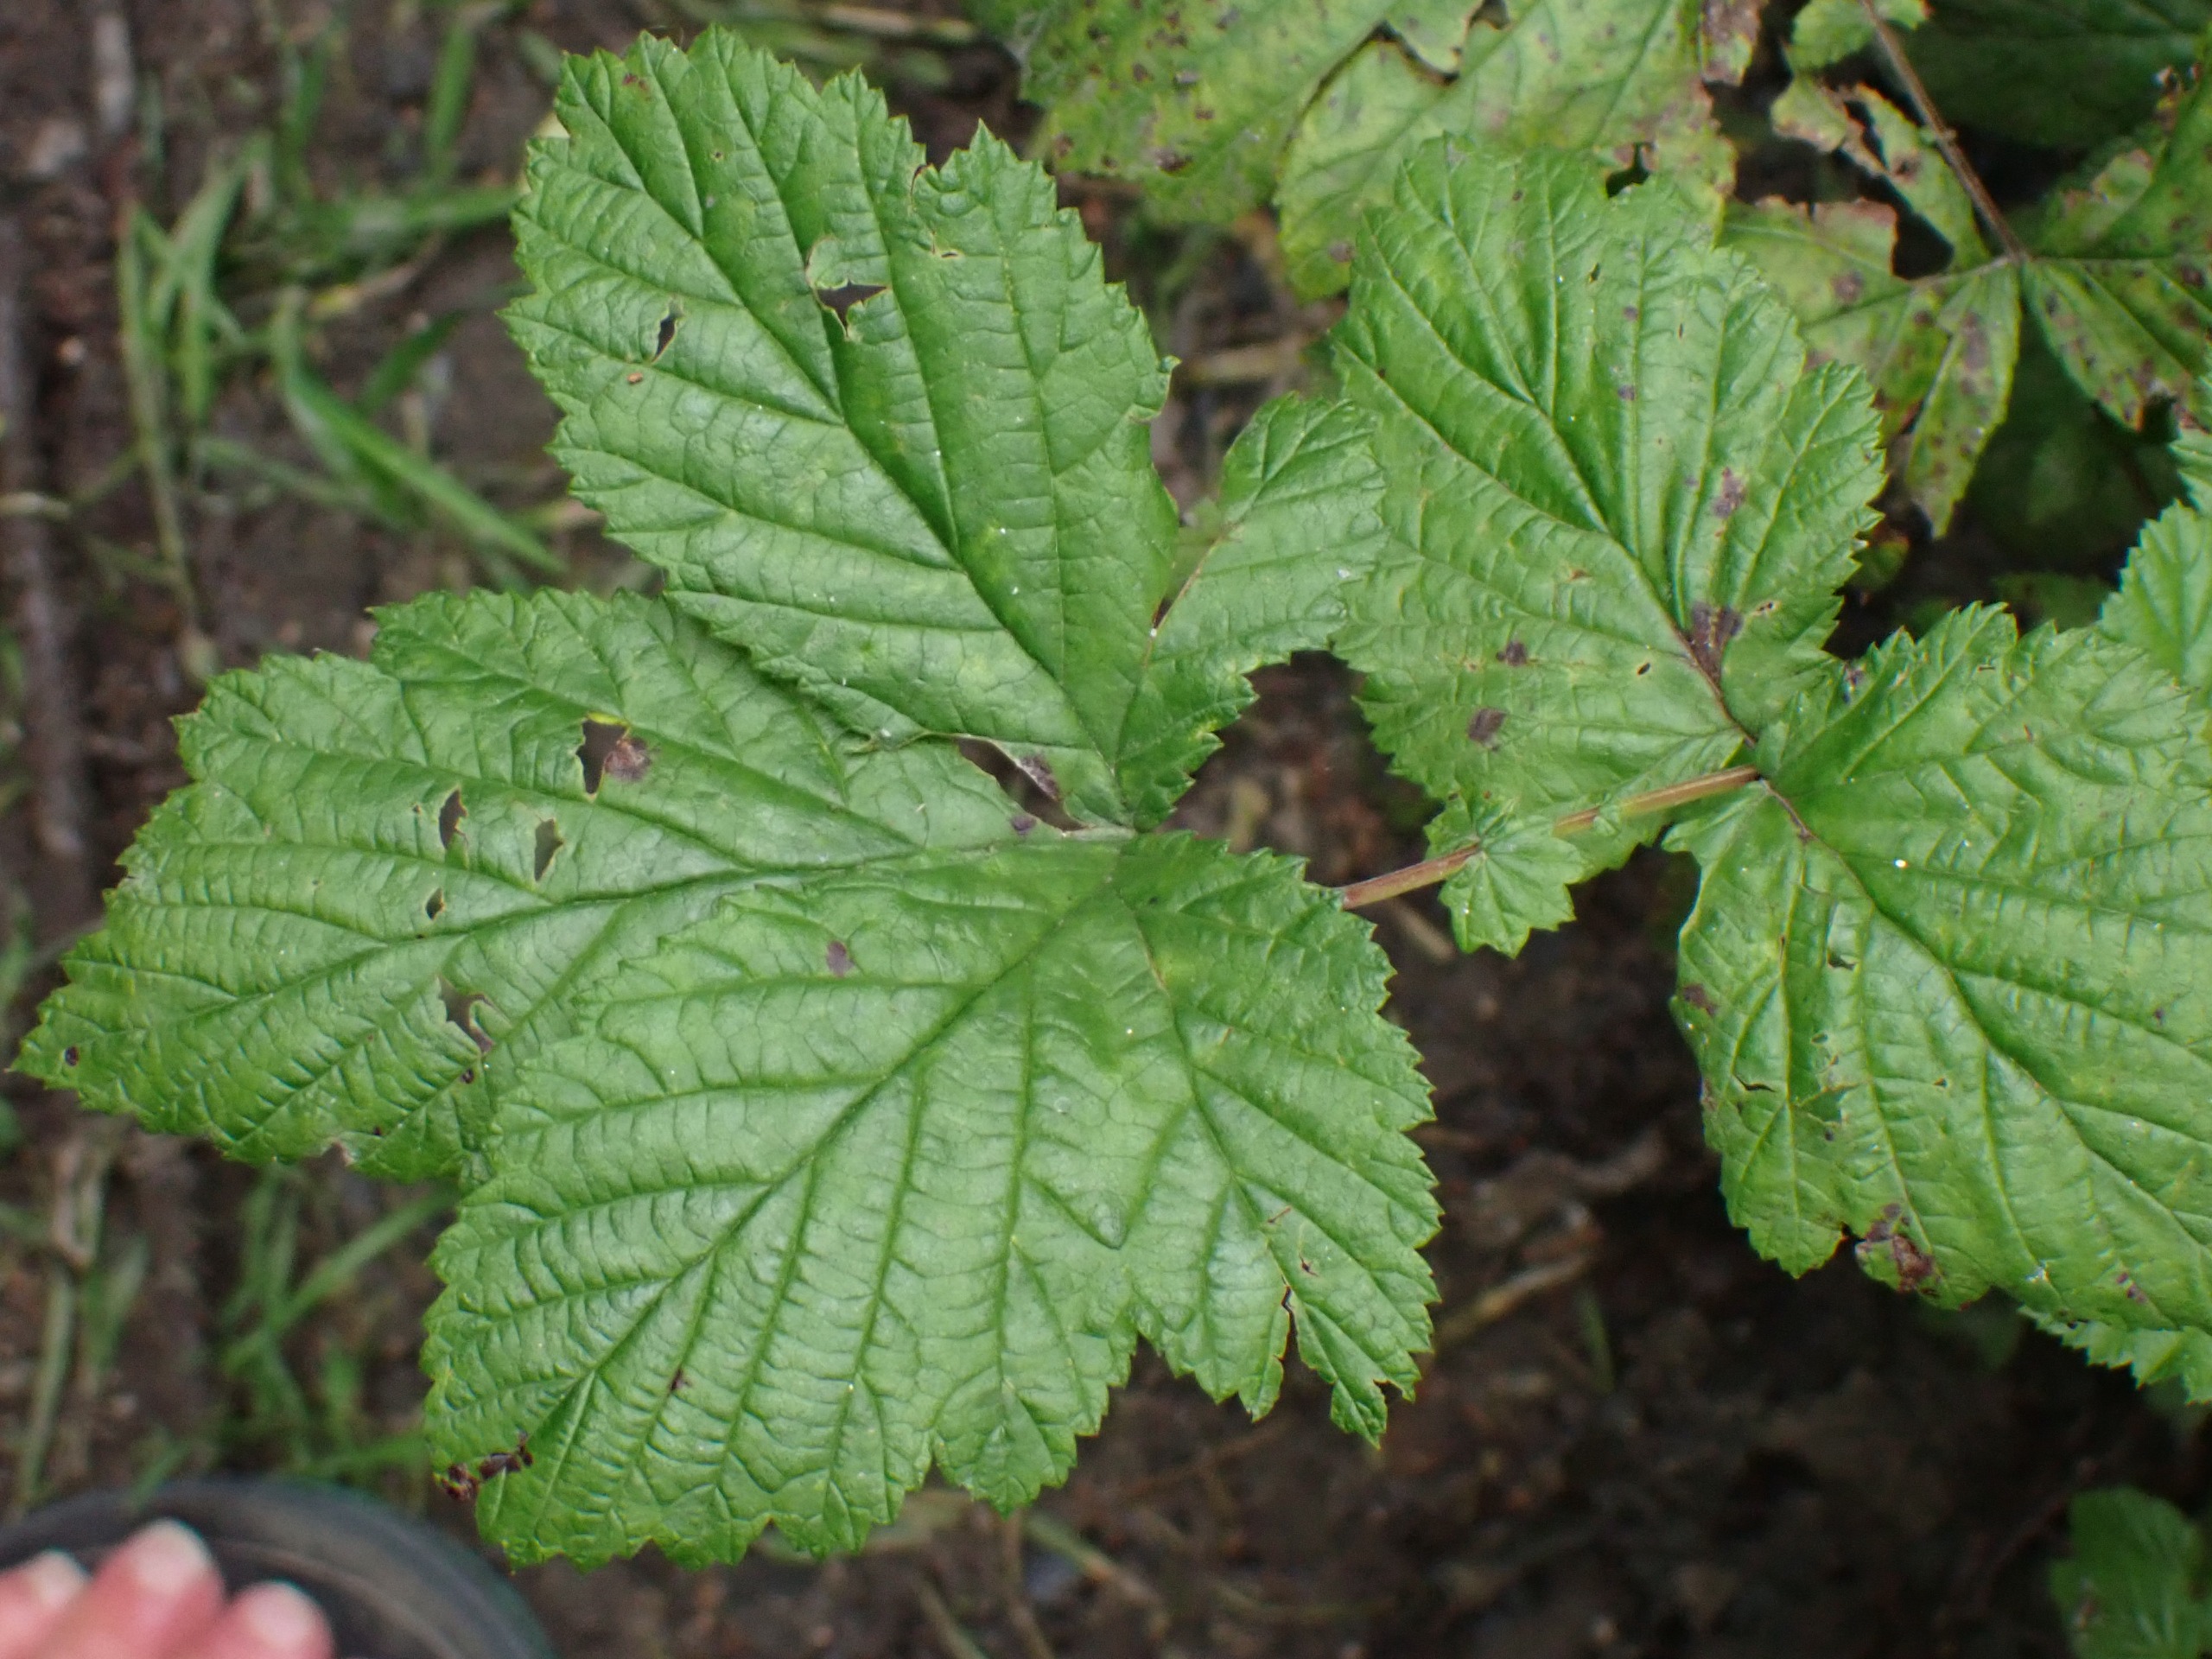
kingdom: Plantae
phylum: Tracheophyta
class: Magnoliopsida
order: Rosales
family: Rosaceae
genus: Filipendula
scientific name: Filipendula ulmaria
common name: Almindelig mjødurt
